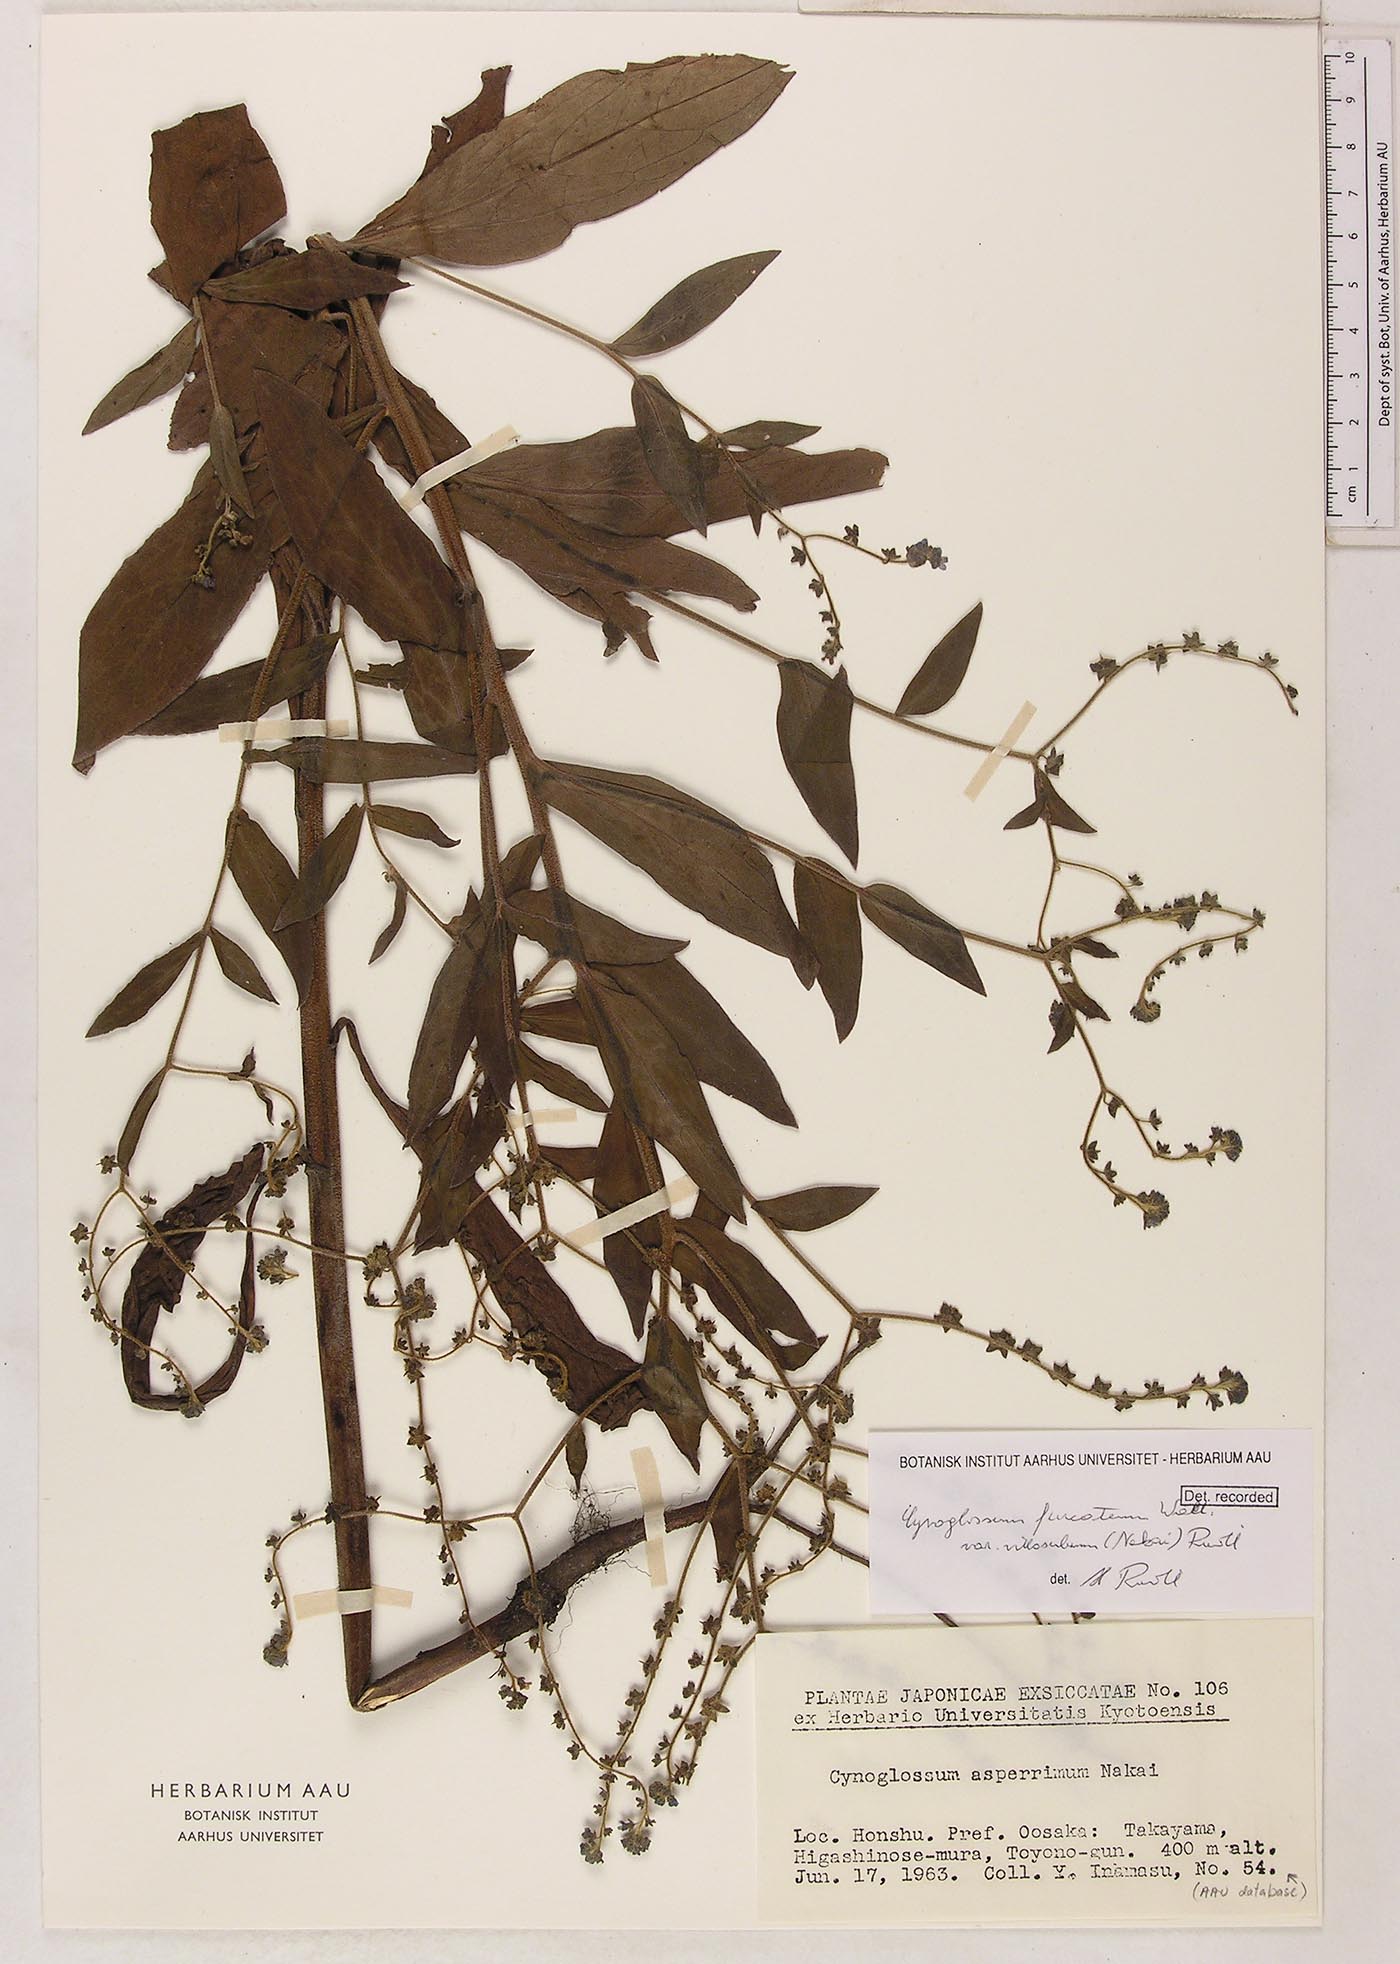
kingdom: Plantae
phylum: Tracheophyta
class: Magnoliopsida
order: Boraginales
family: Boraginaceae
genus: Rochelia
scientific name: Rochelia zeylanica
